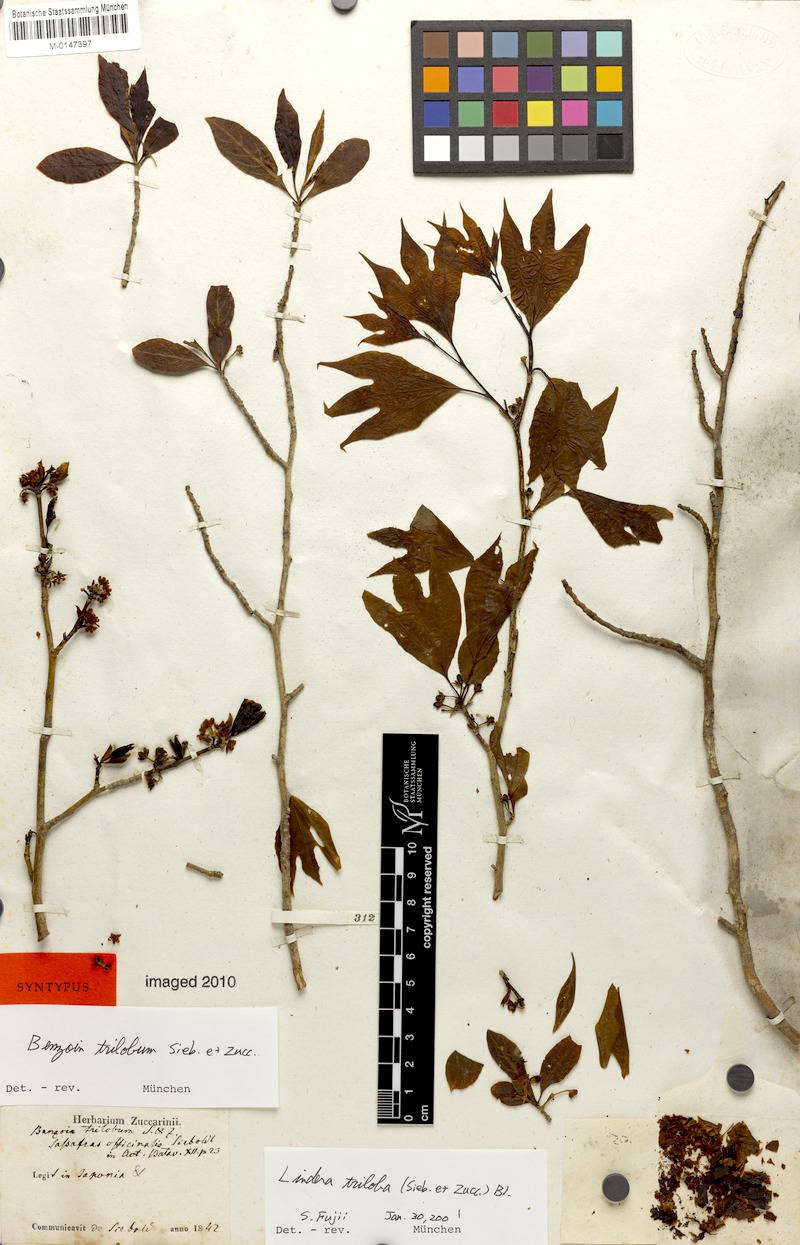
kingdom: Plantae
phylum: Tracheophyta
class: Magnoliopsida
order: Laurales
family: Lauraceae
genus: Lindera
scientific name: Lindera triloba
